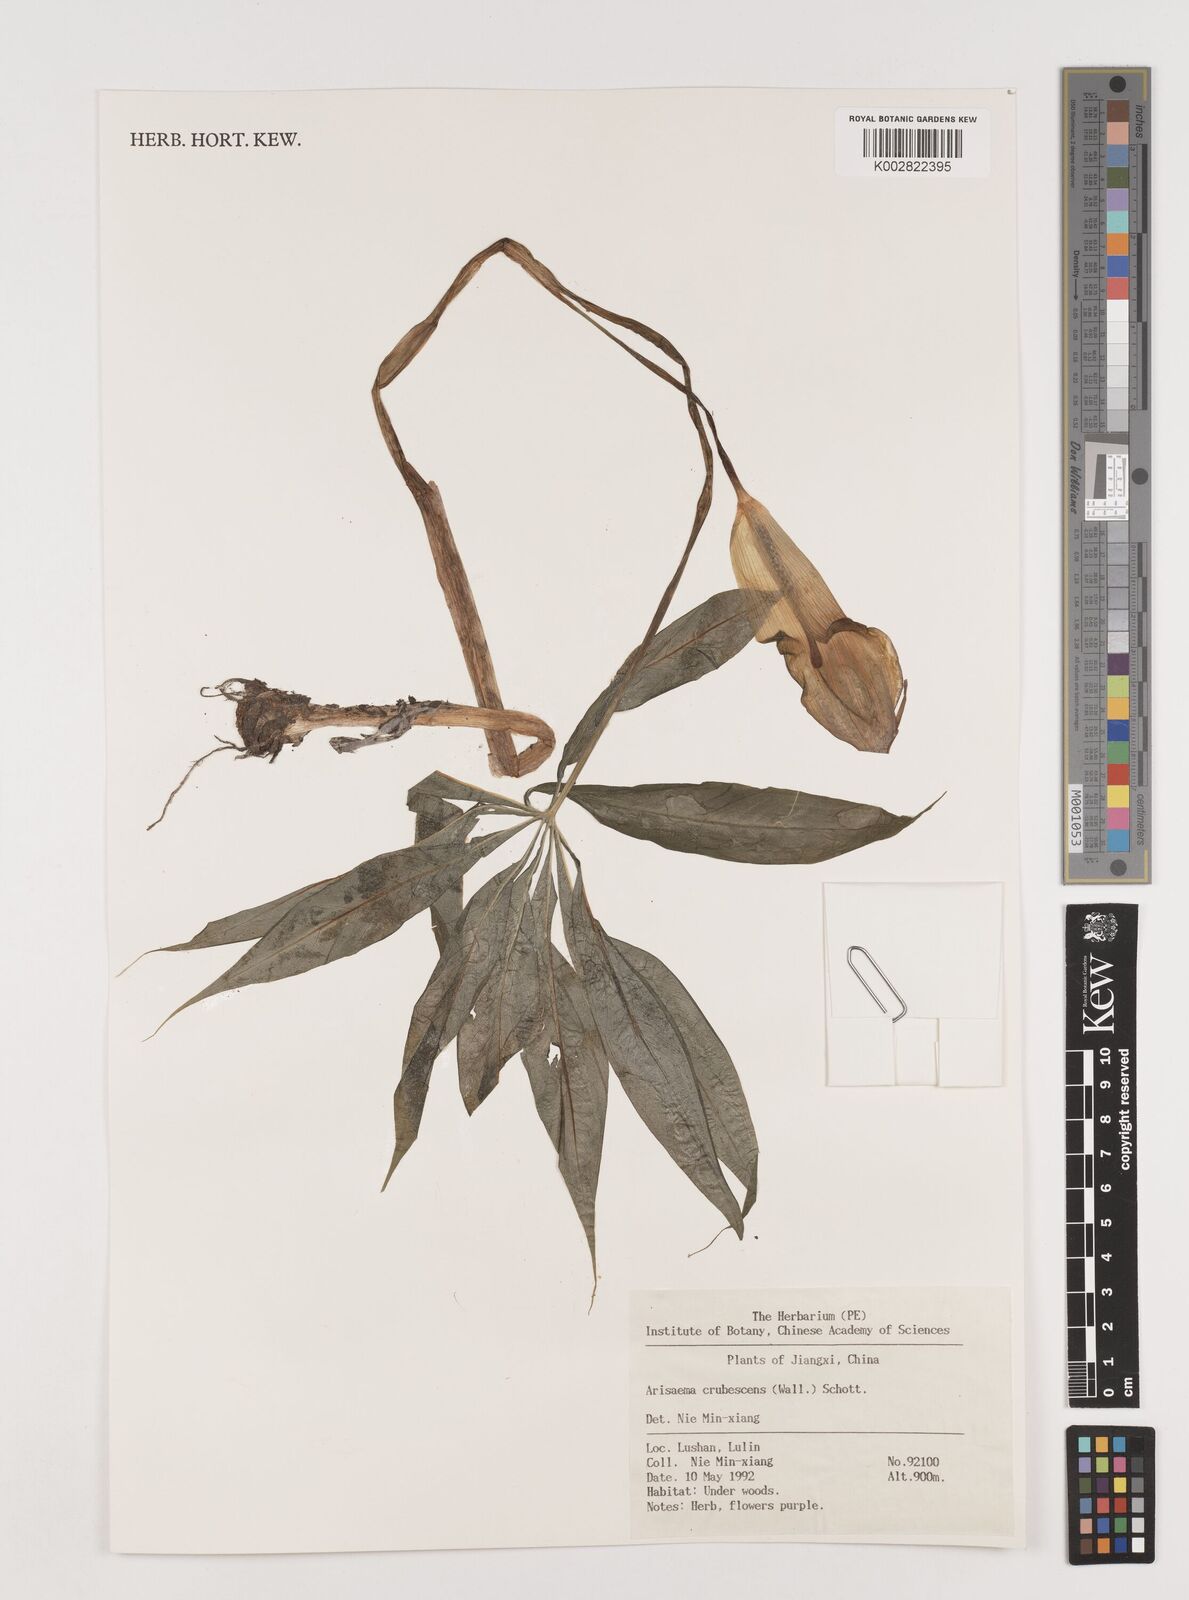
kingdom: Plantae
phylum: Tracheophyta
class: Liliopsida
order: Alismatales
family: Araceae
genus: Arisaema
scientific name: Arisaema erubescens
